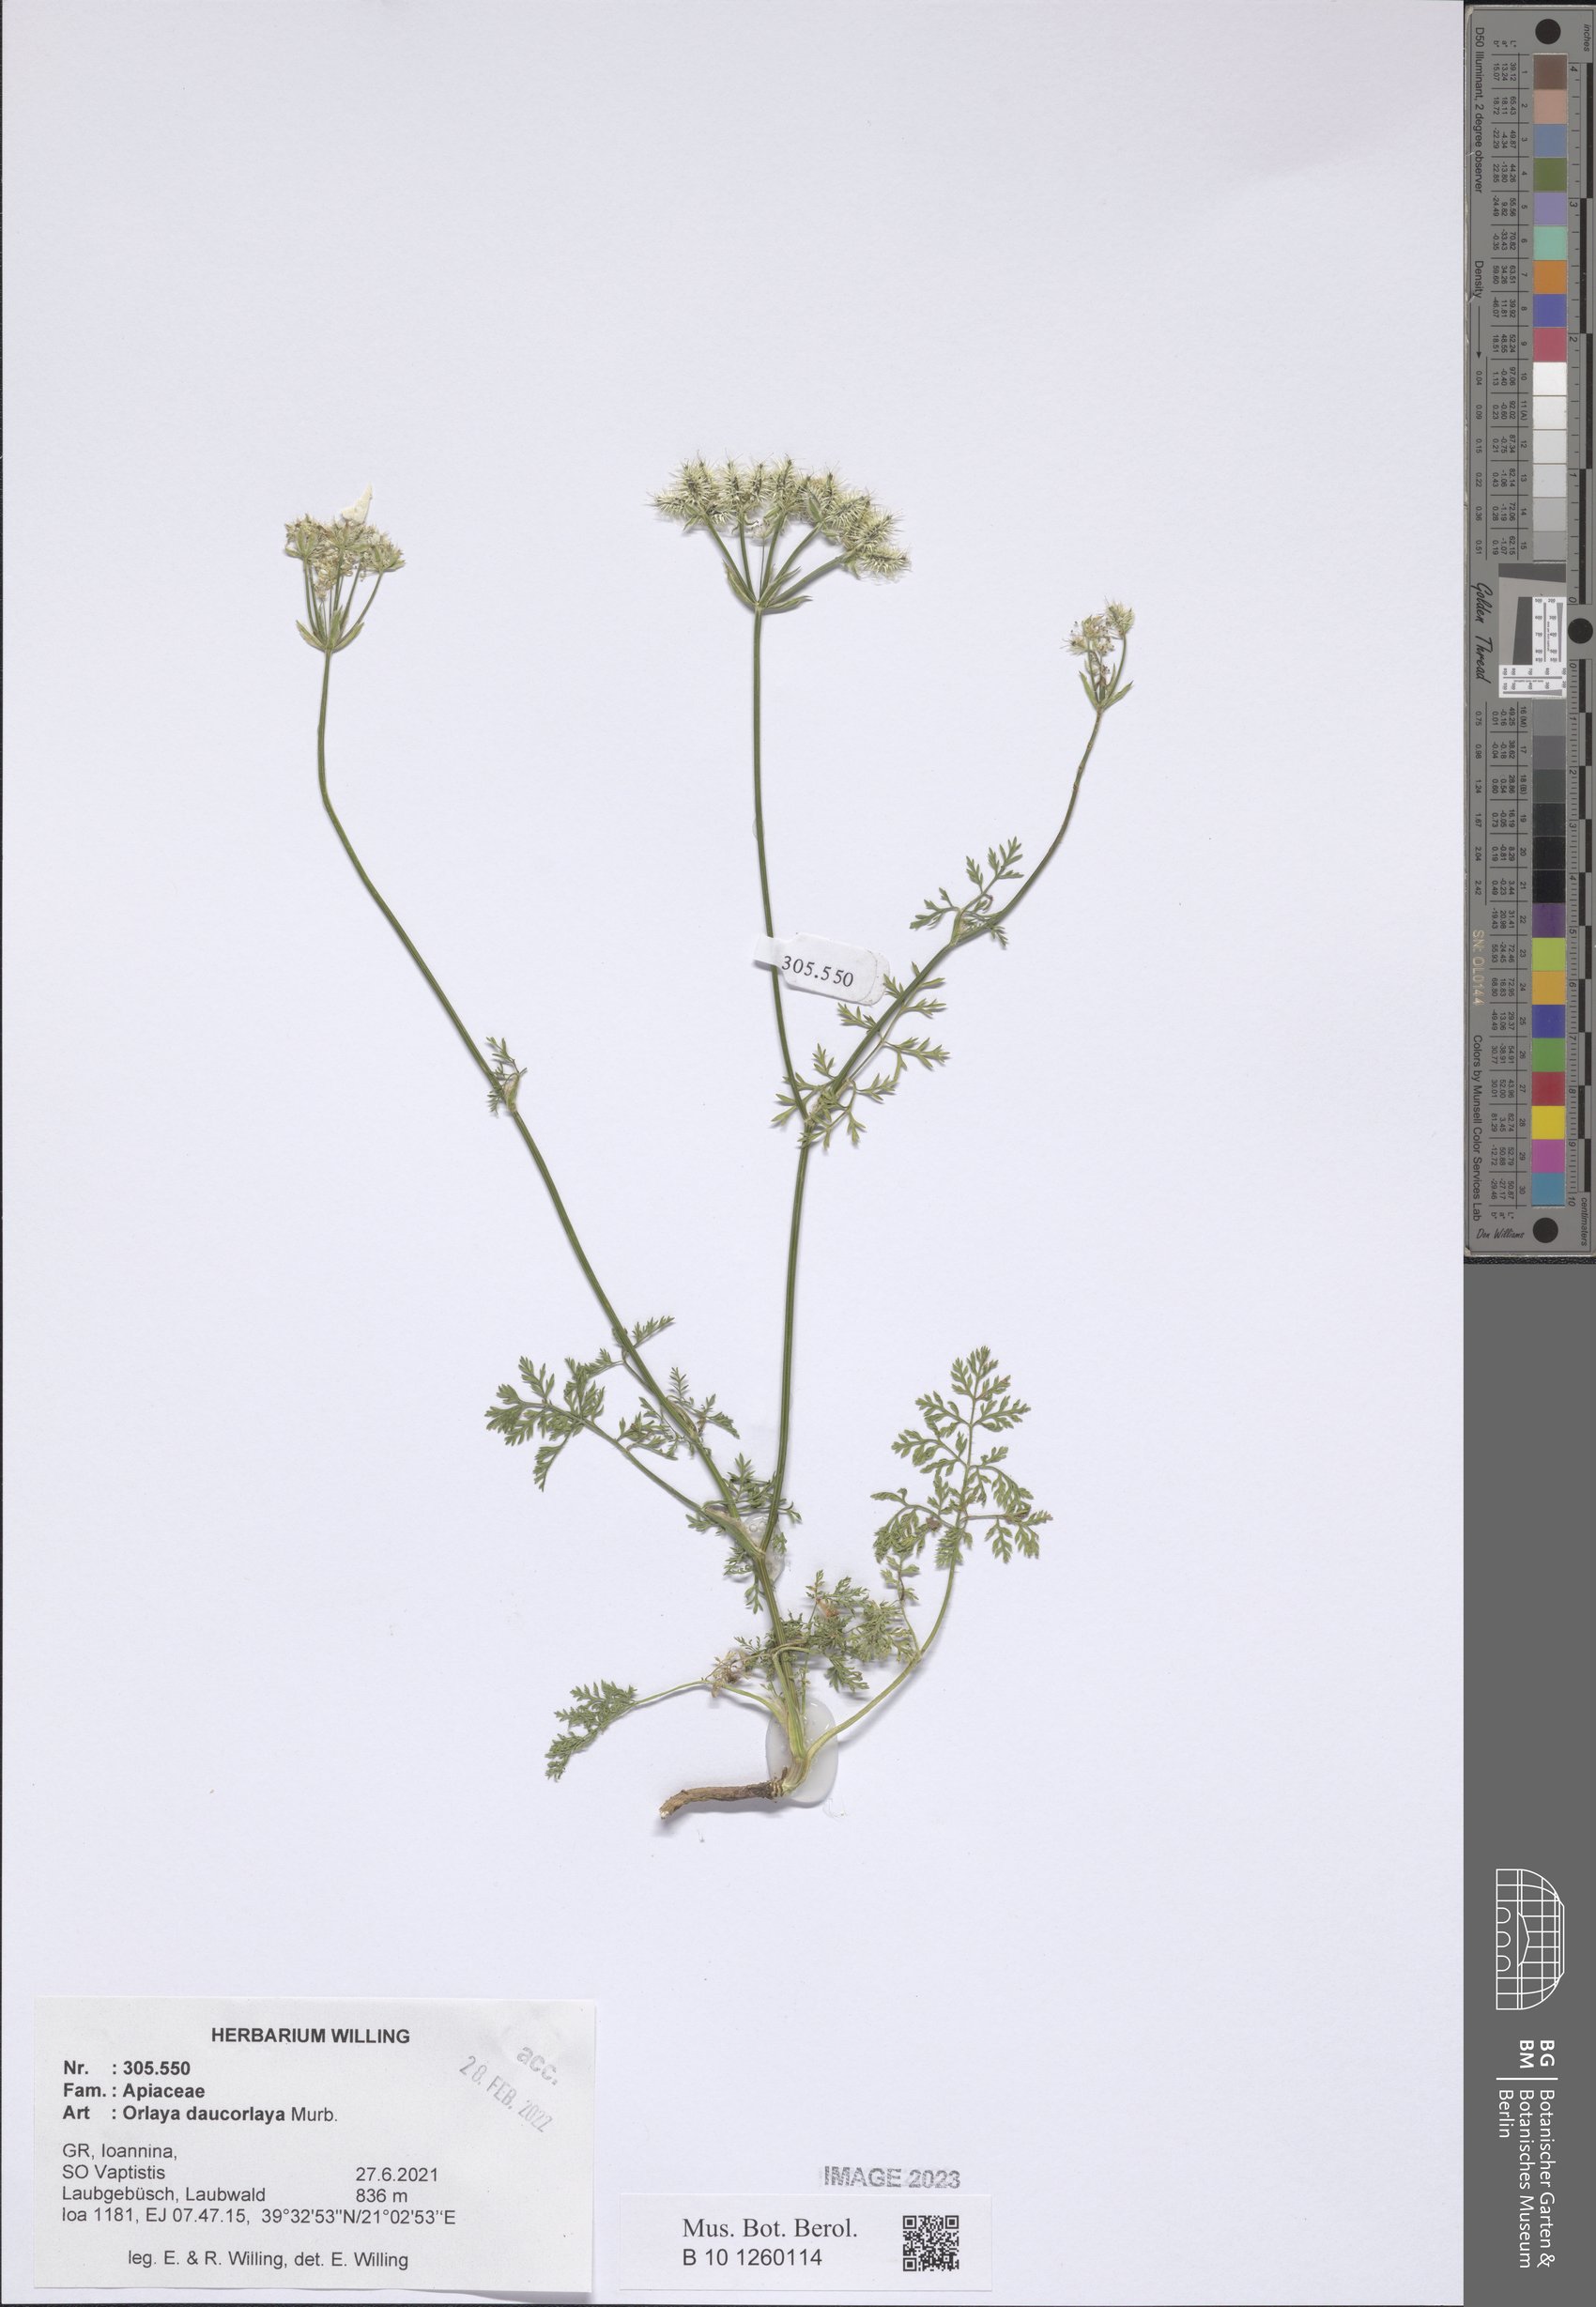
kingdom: Plantae
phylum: Tracheophyta
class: Magnoliopsida
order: Apiales
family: Apiaceae
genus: Orlaya
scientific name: Orlaya daucorlaya
